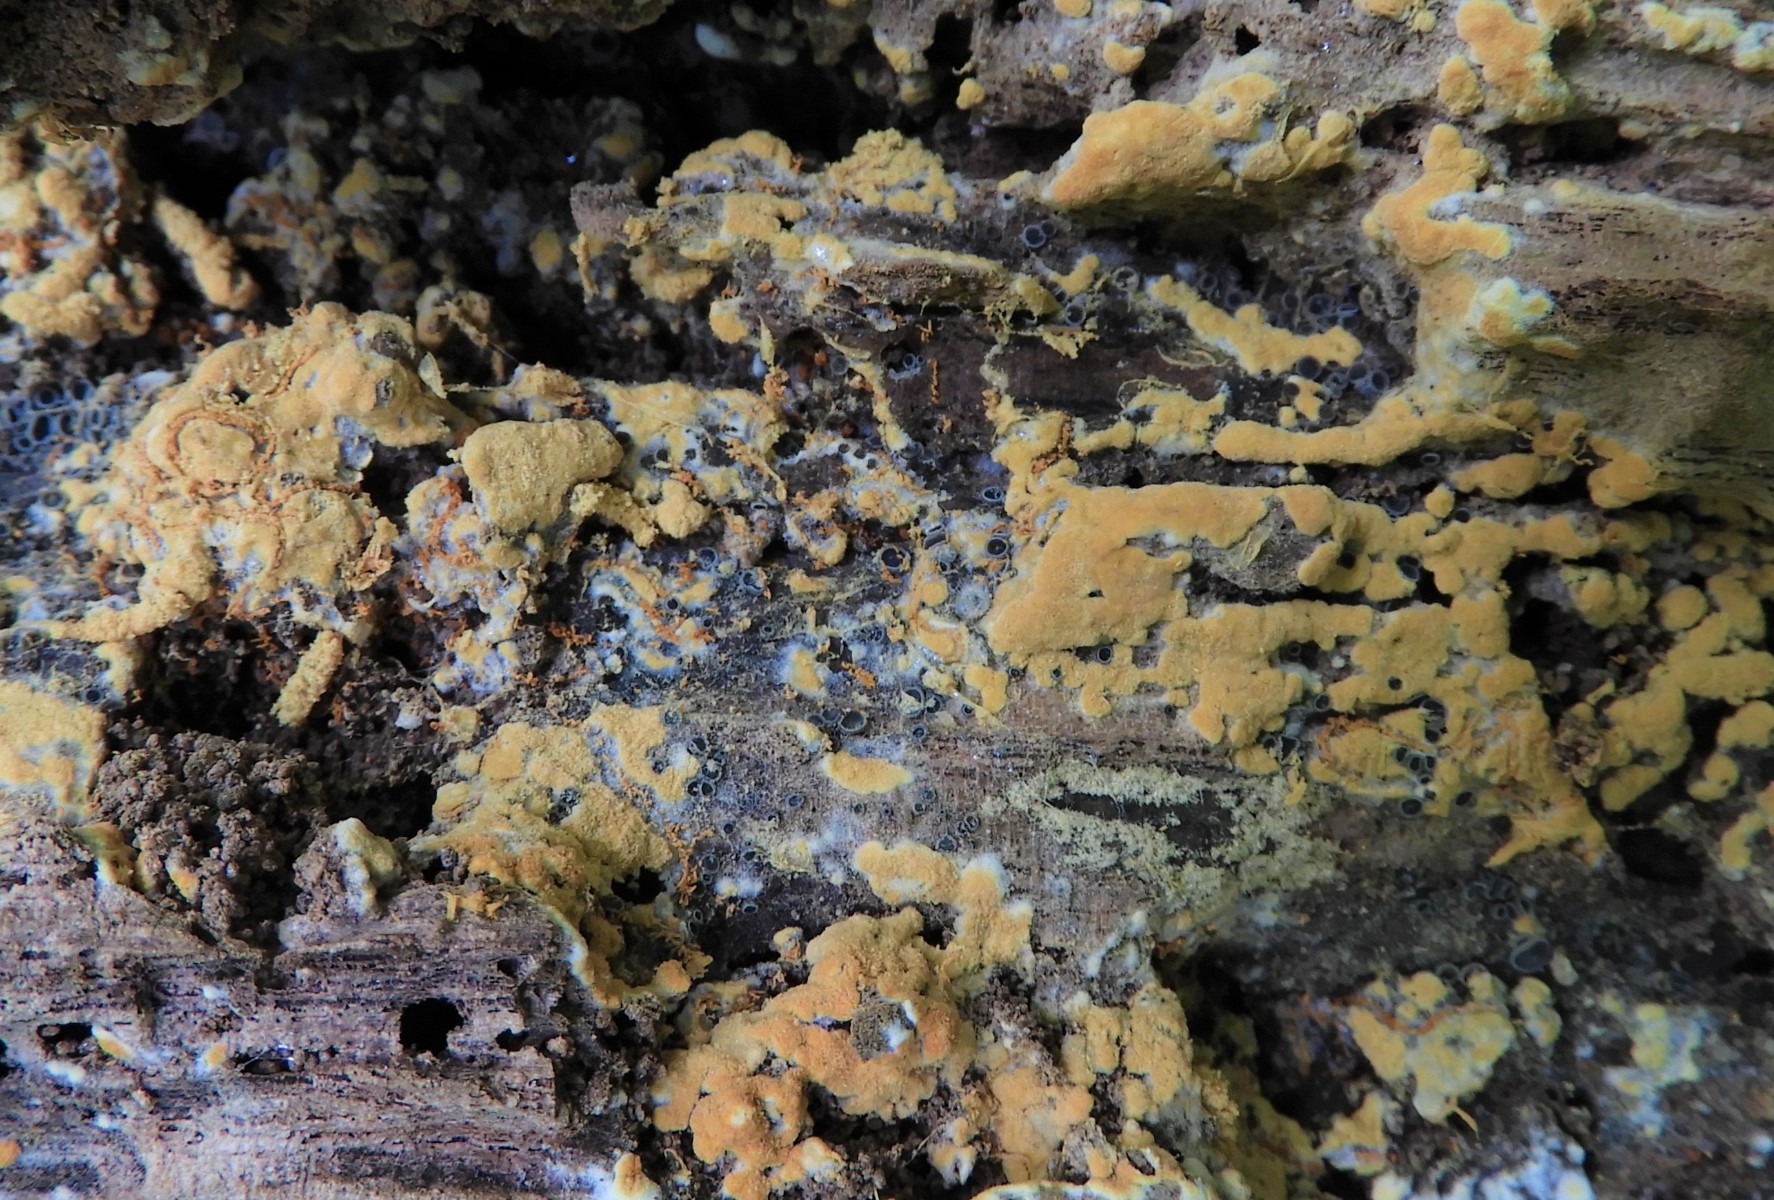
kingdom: Fungi
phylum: Basidiomycota
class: Agaricomycetes
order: Cantharellales
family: Botryobasidiaceae
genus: Botryobasidium
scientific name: Botryobasidium aureum
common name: gylden spindhinde
